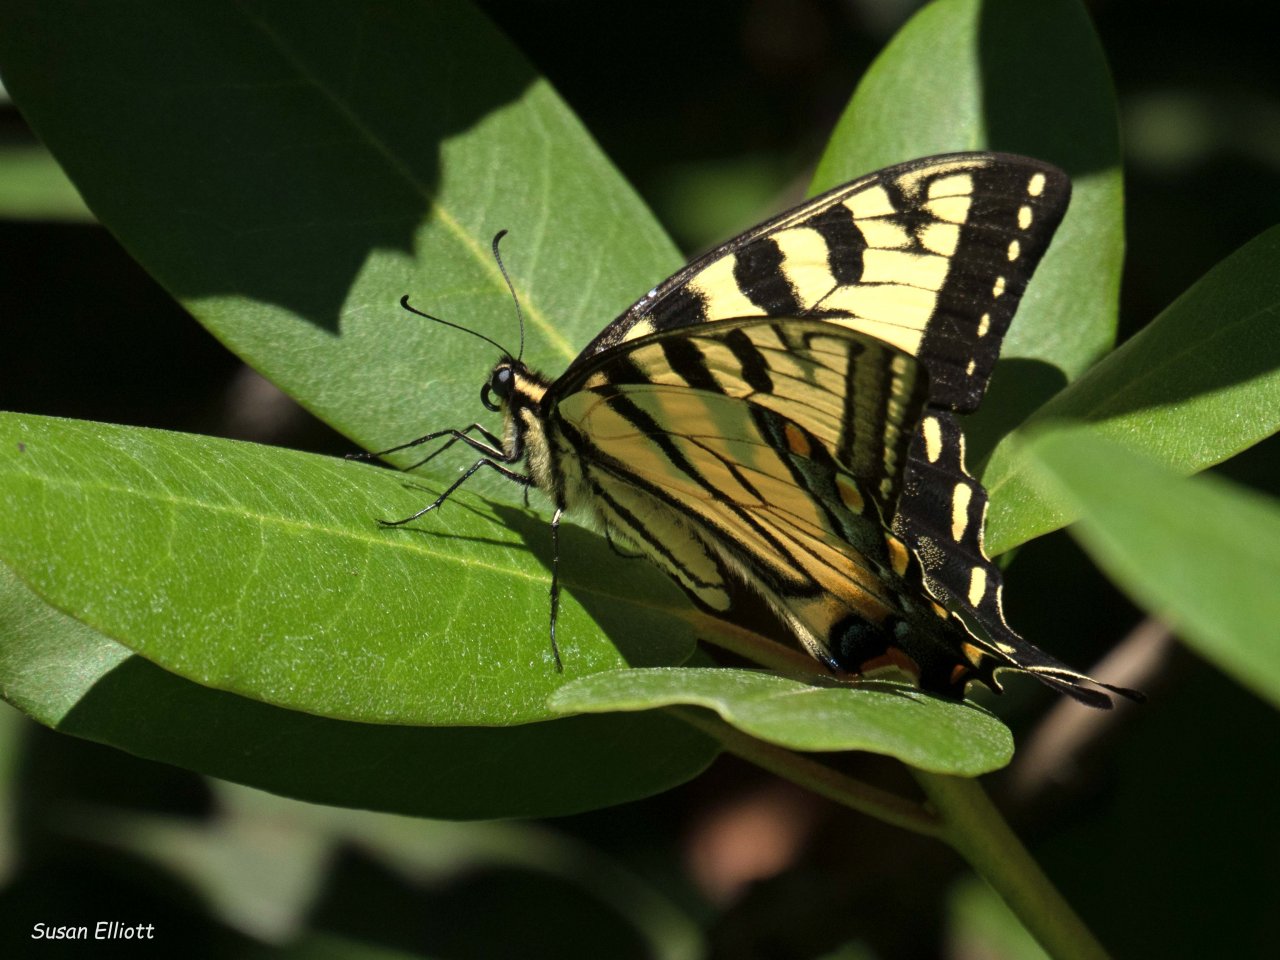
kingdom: Animalia
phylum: Arthropoda
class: Insecta
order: Lepidoptera
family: Papilionidae
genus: Pterourus
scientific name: Pterourus glaucus
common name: Eastern Tiger Swallowtail
